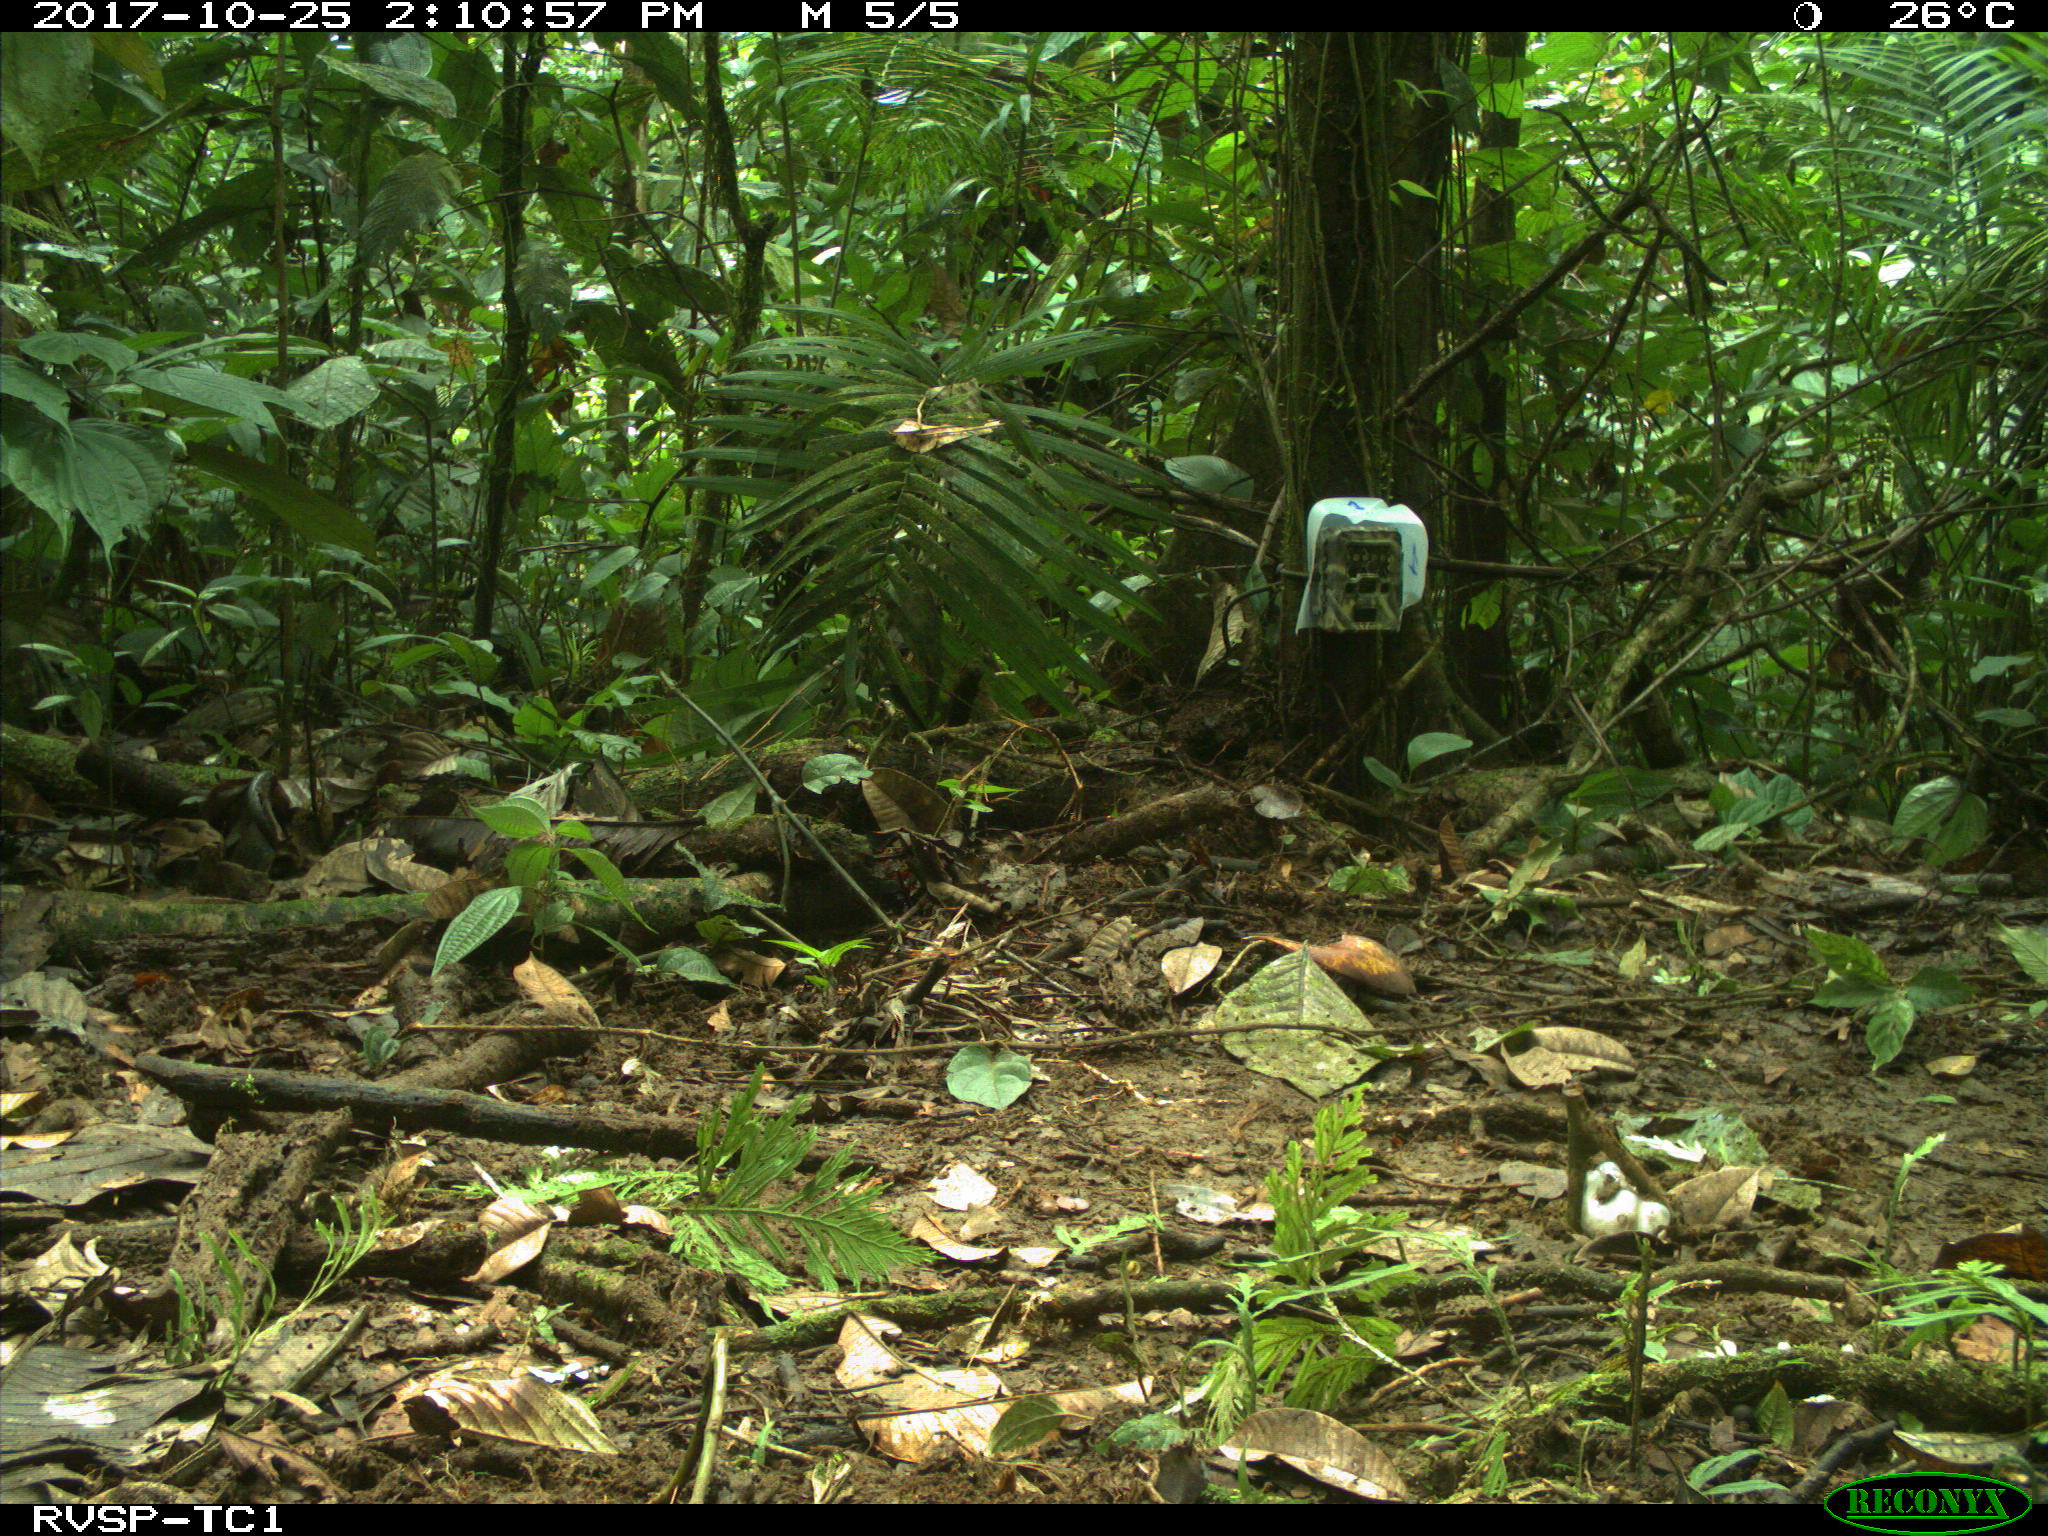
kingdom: Animalia
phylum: Chordata
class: Mammalia
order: Rodentia
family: Dasyproctidae
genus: Dasyprocta
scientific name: Dasyprocta punctata
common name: Central american agouti
